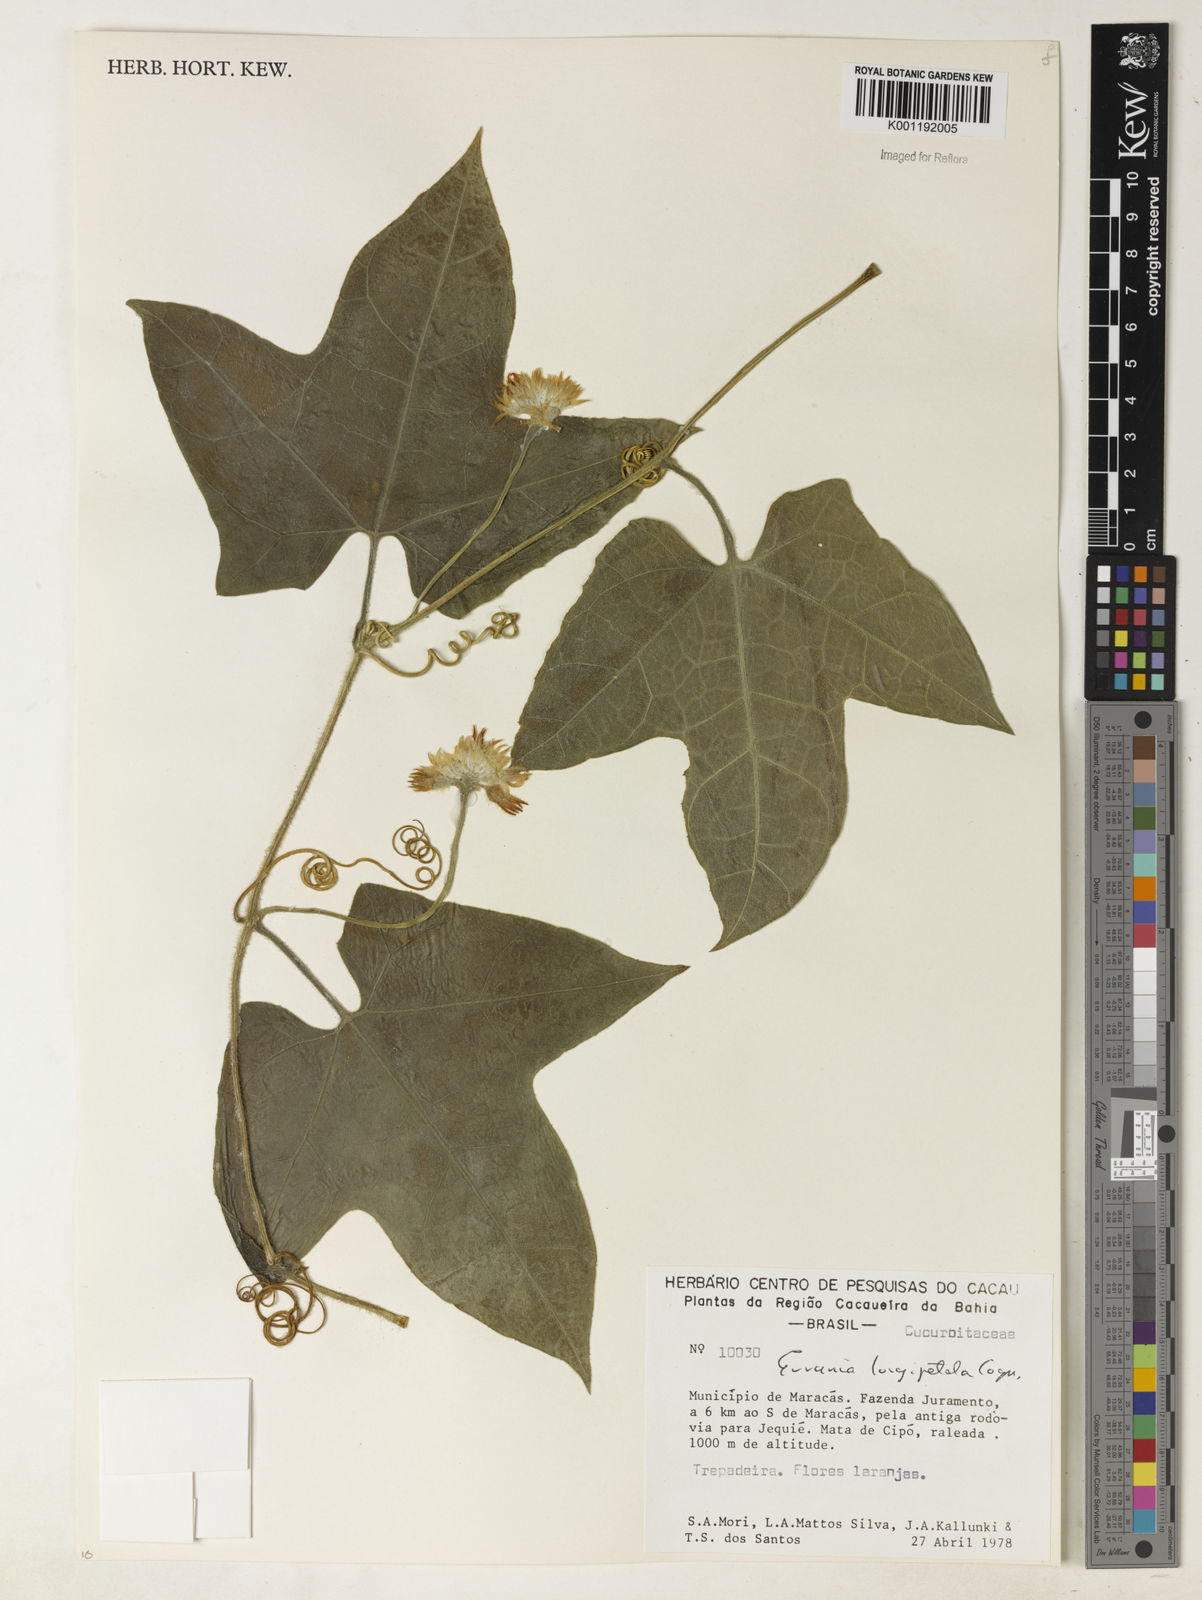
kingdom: Plantae
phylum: Tracheophyta
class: Magnoliopsida
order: Cucurbitales
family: Cucurbitaceae
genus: Gurania
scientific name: Gurania eriantha
